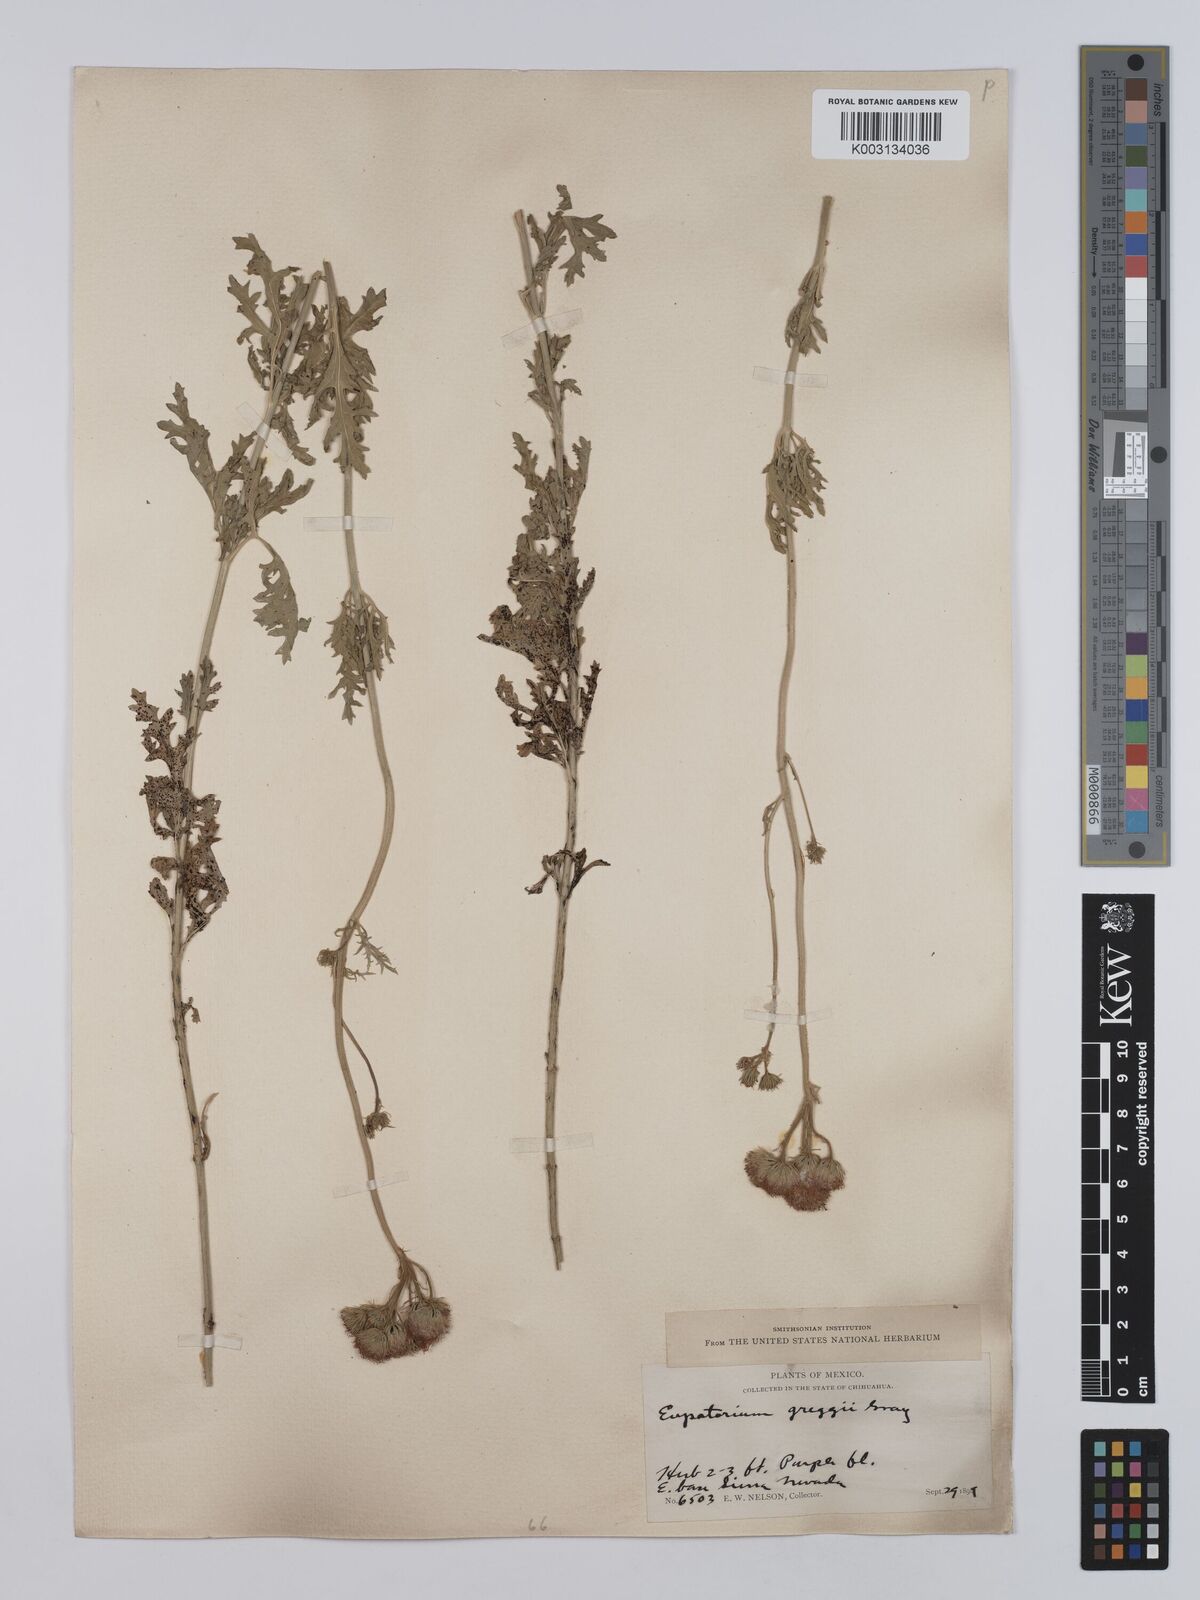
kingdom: Plantae
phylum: Tracheophyta
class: Magnoliopsida
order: Asterales
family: Asteraceae
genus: Conoclinium
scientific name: Conoclinium dissectum
